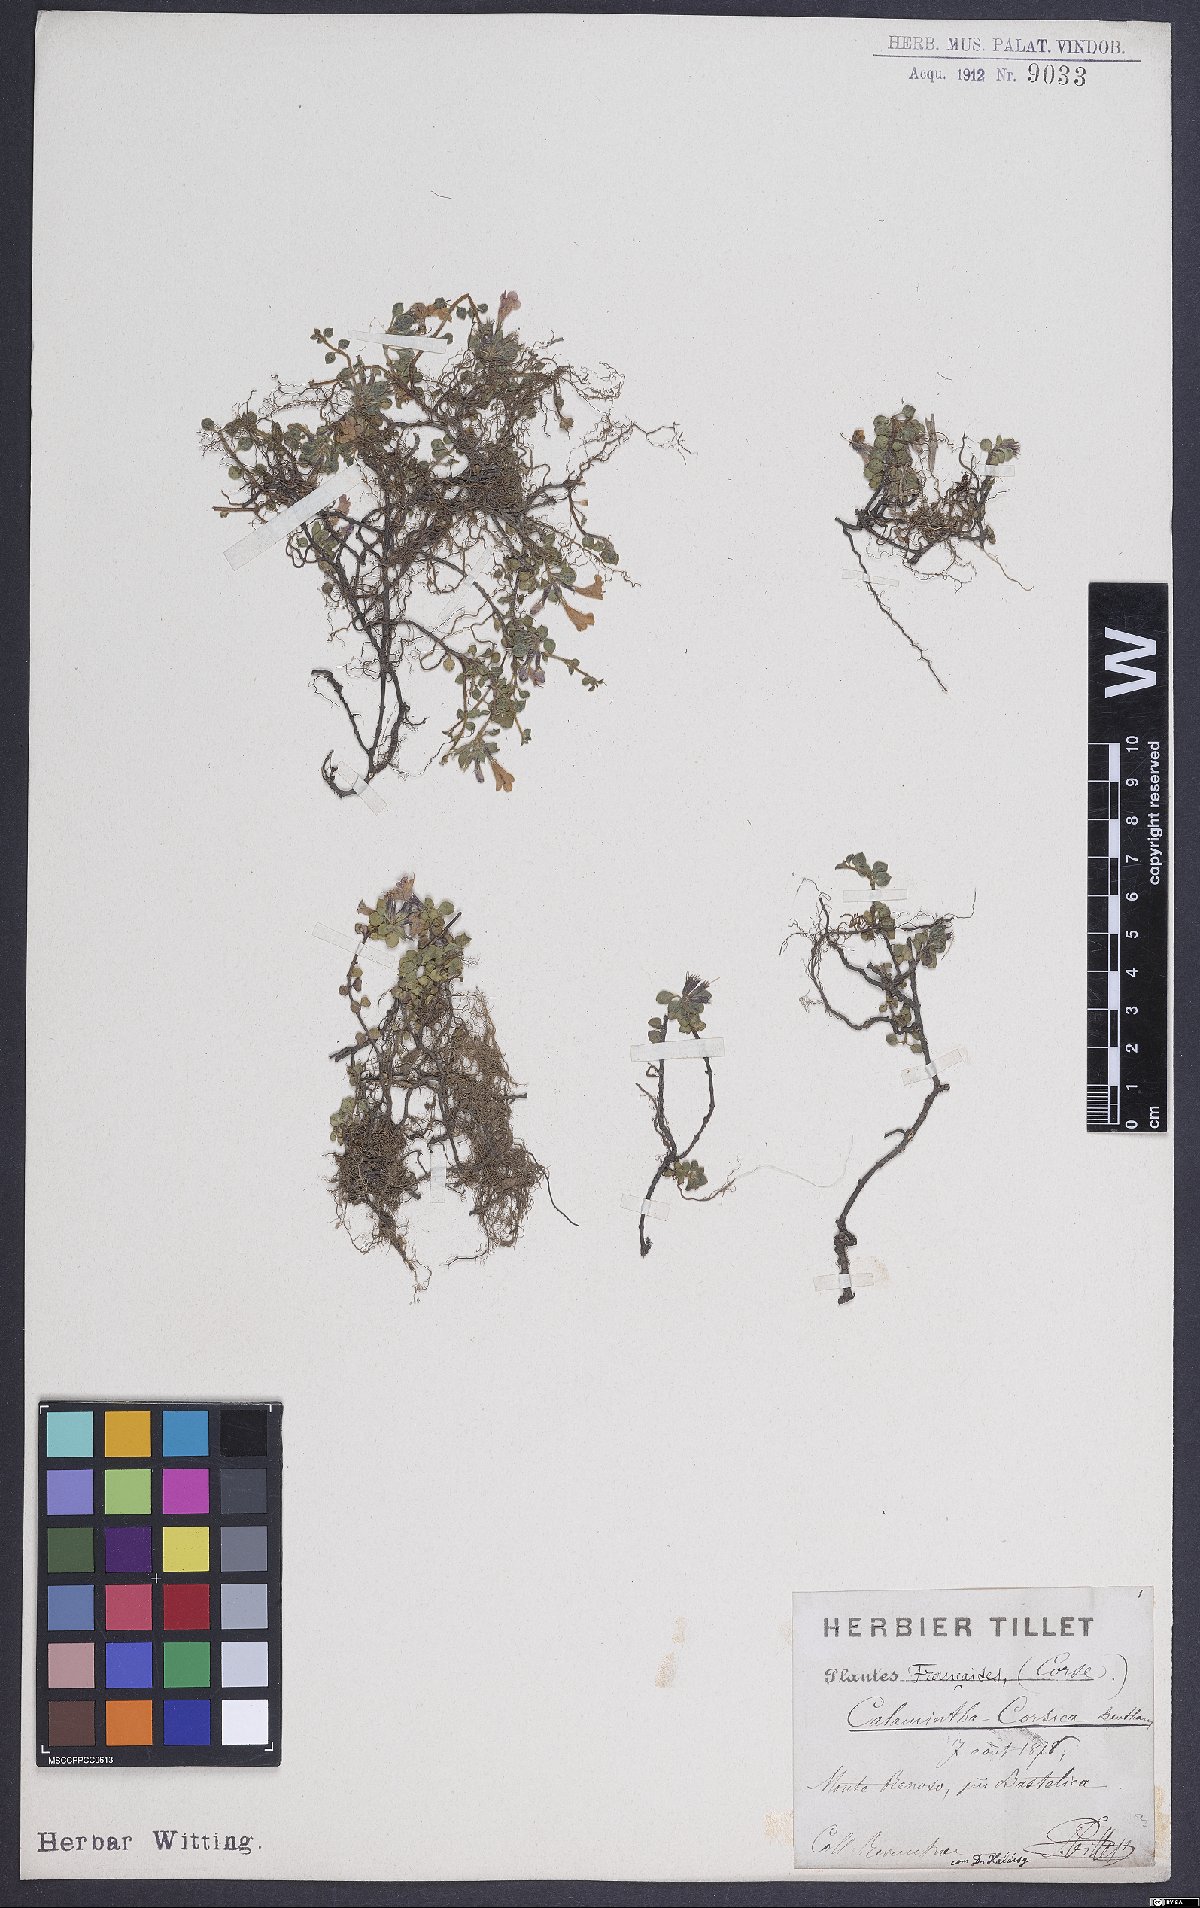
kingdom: Plantae
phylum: Tracheophyta
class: Magnoliopsida
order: Lamiales
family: Lamiaceae
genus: Calamintha
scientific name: Calamintha
